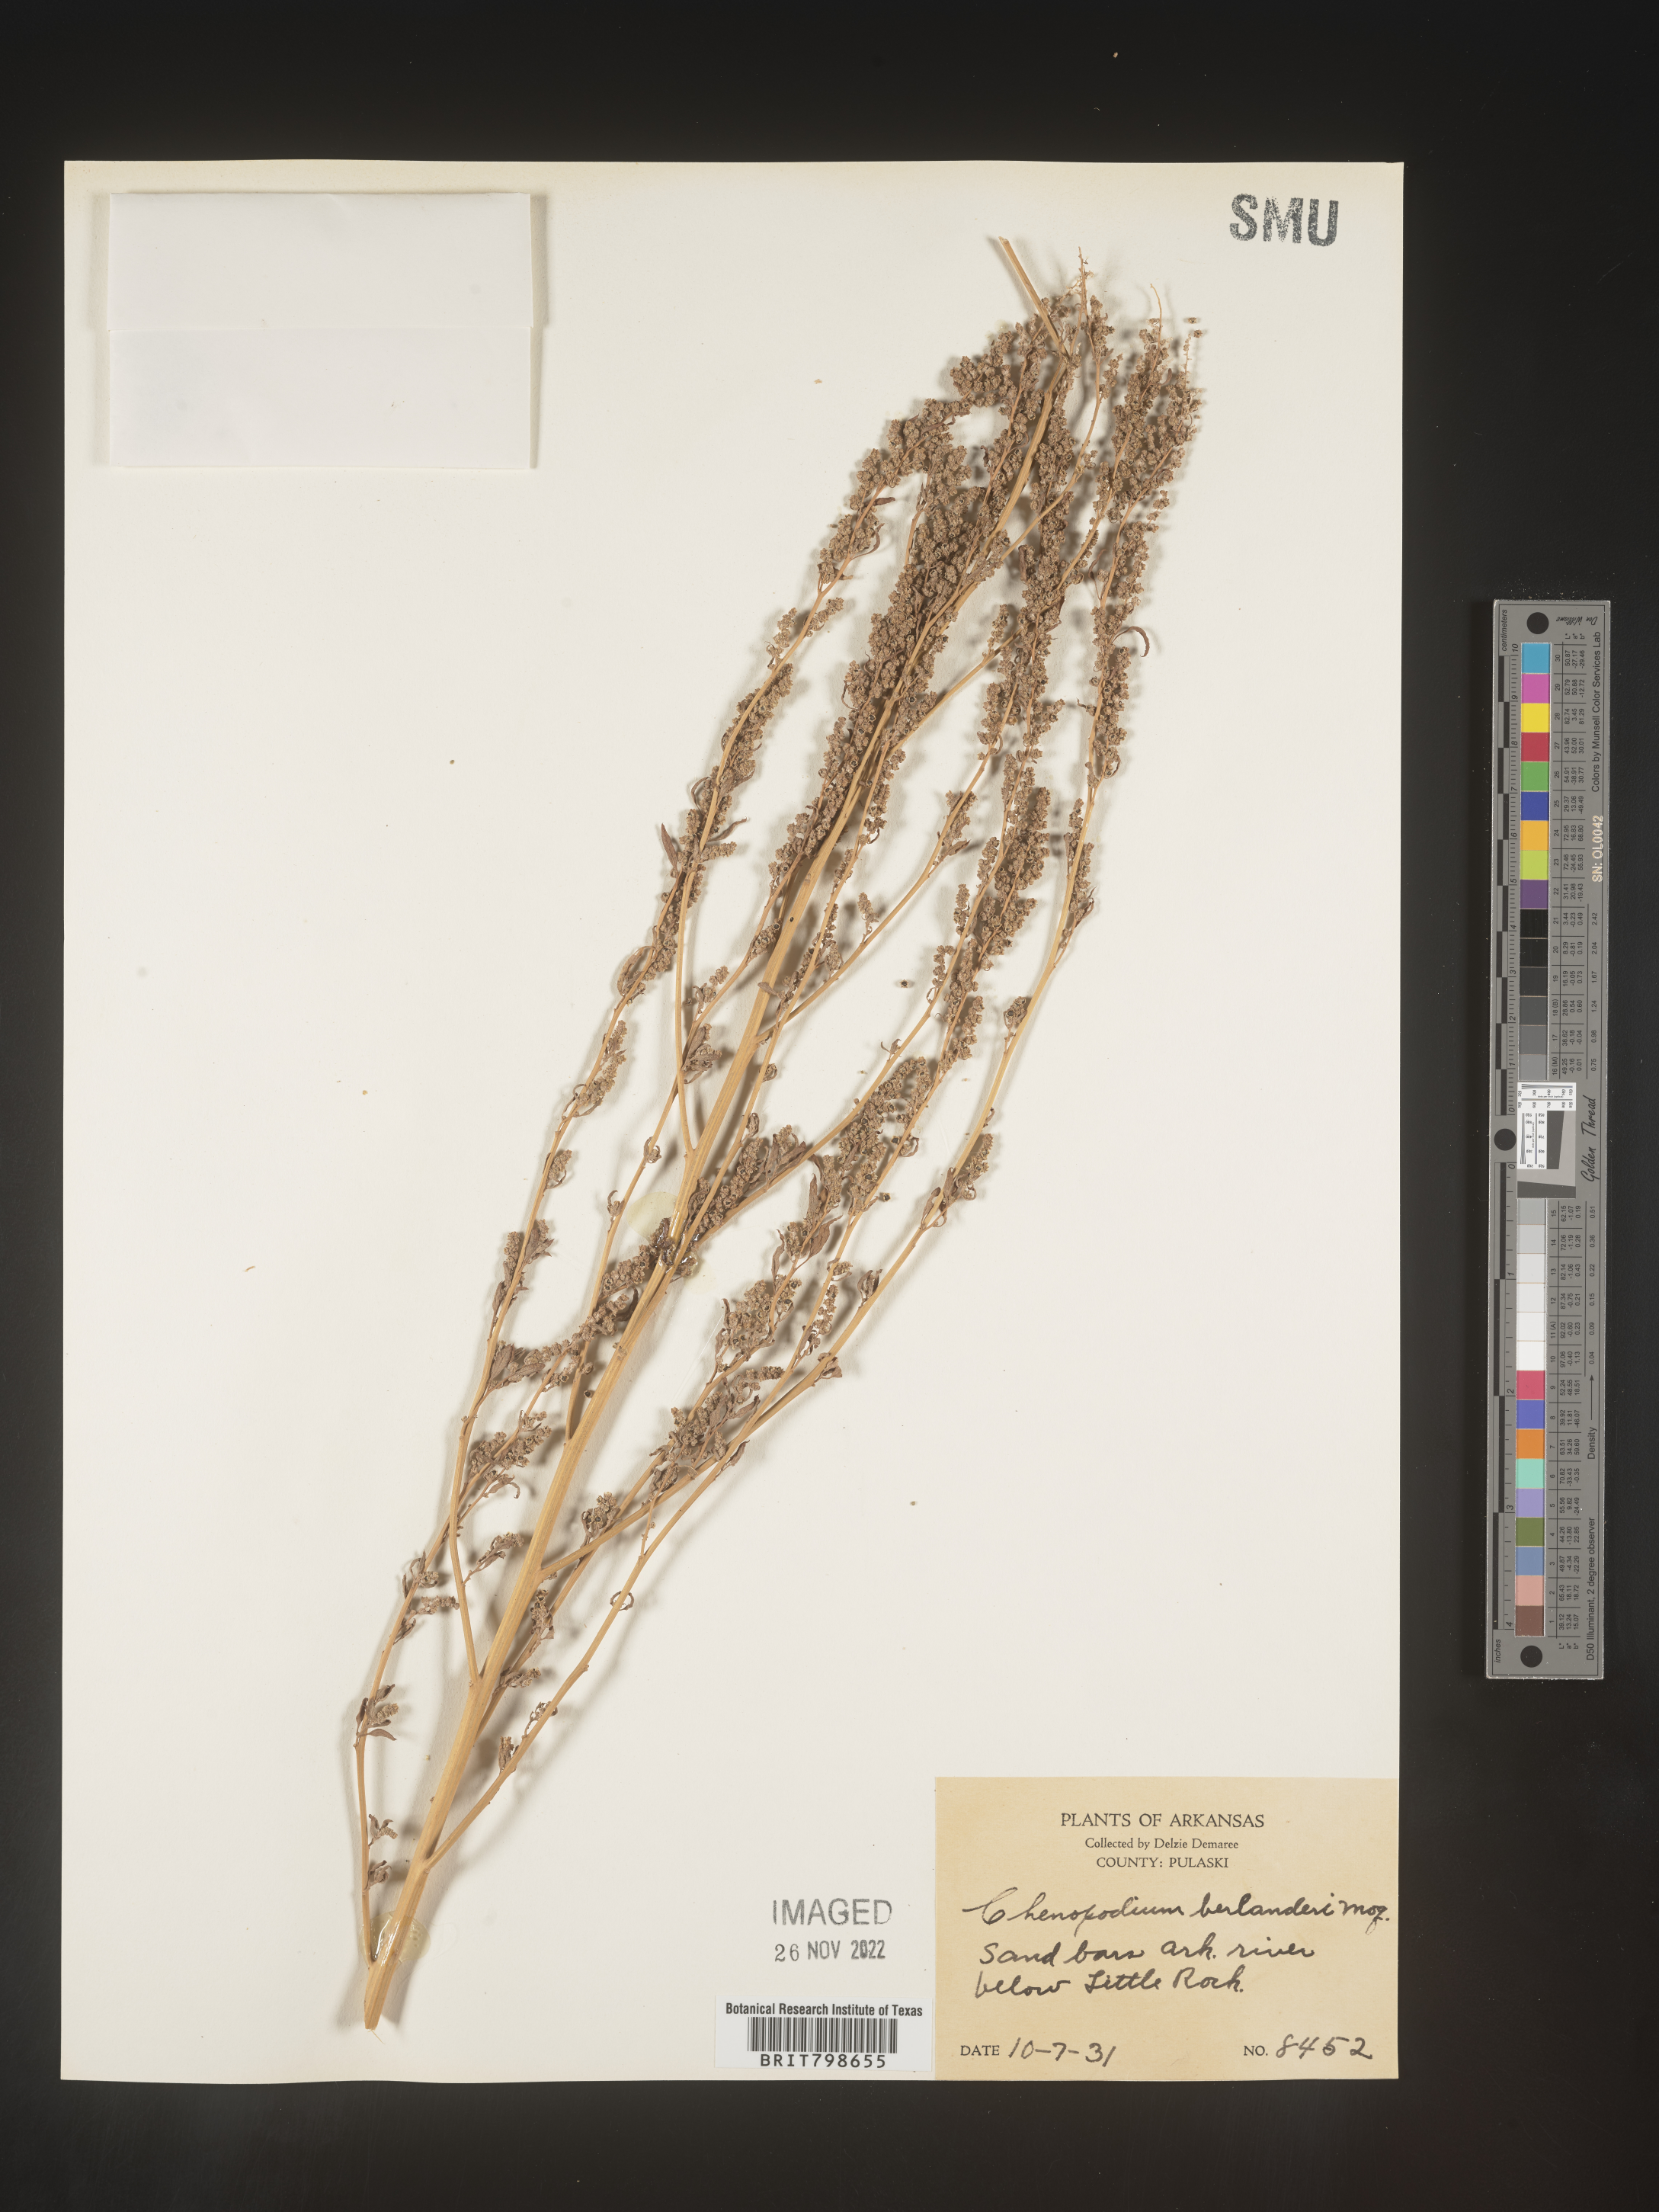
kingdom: Plantae
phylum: Tracheophyta
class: Magnoliopsida
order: Caryophyllales
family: Amaranthaceae
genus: Chenopodium
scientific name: Chenopodium berlandieri
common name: Pit-seed goosefoot
